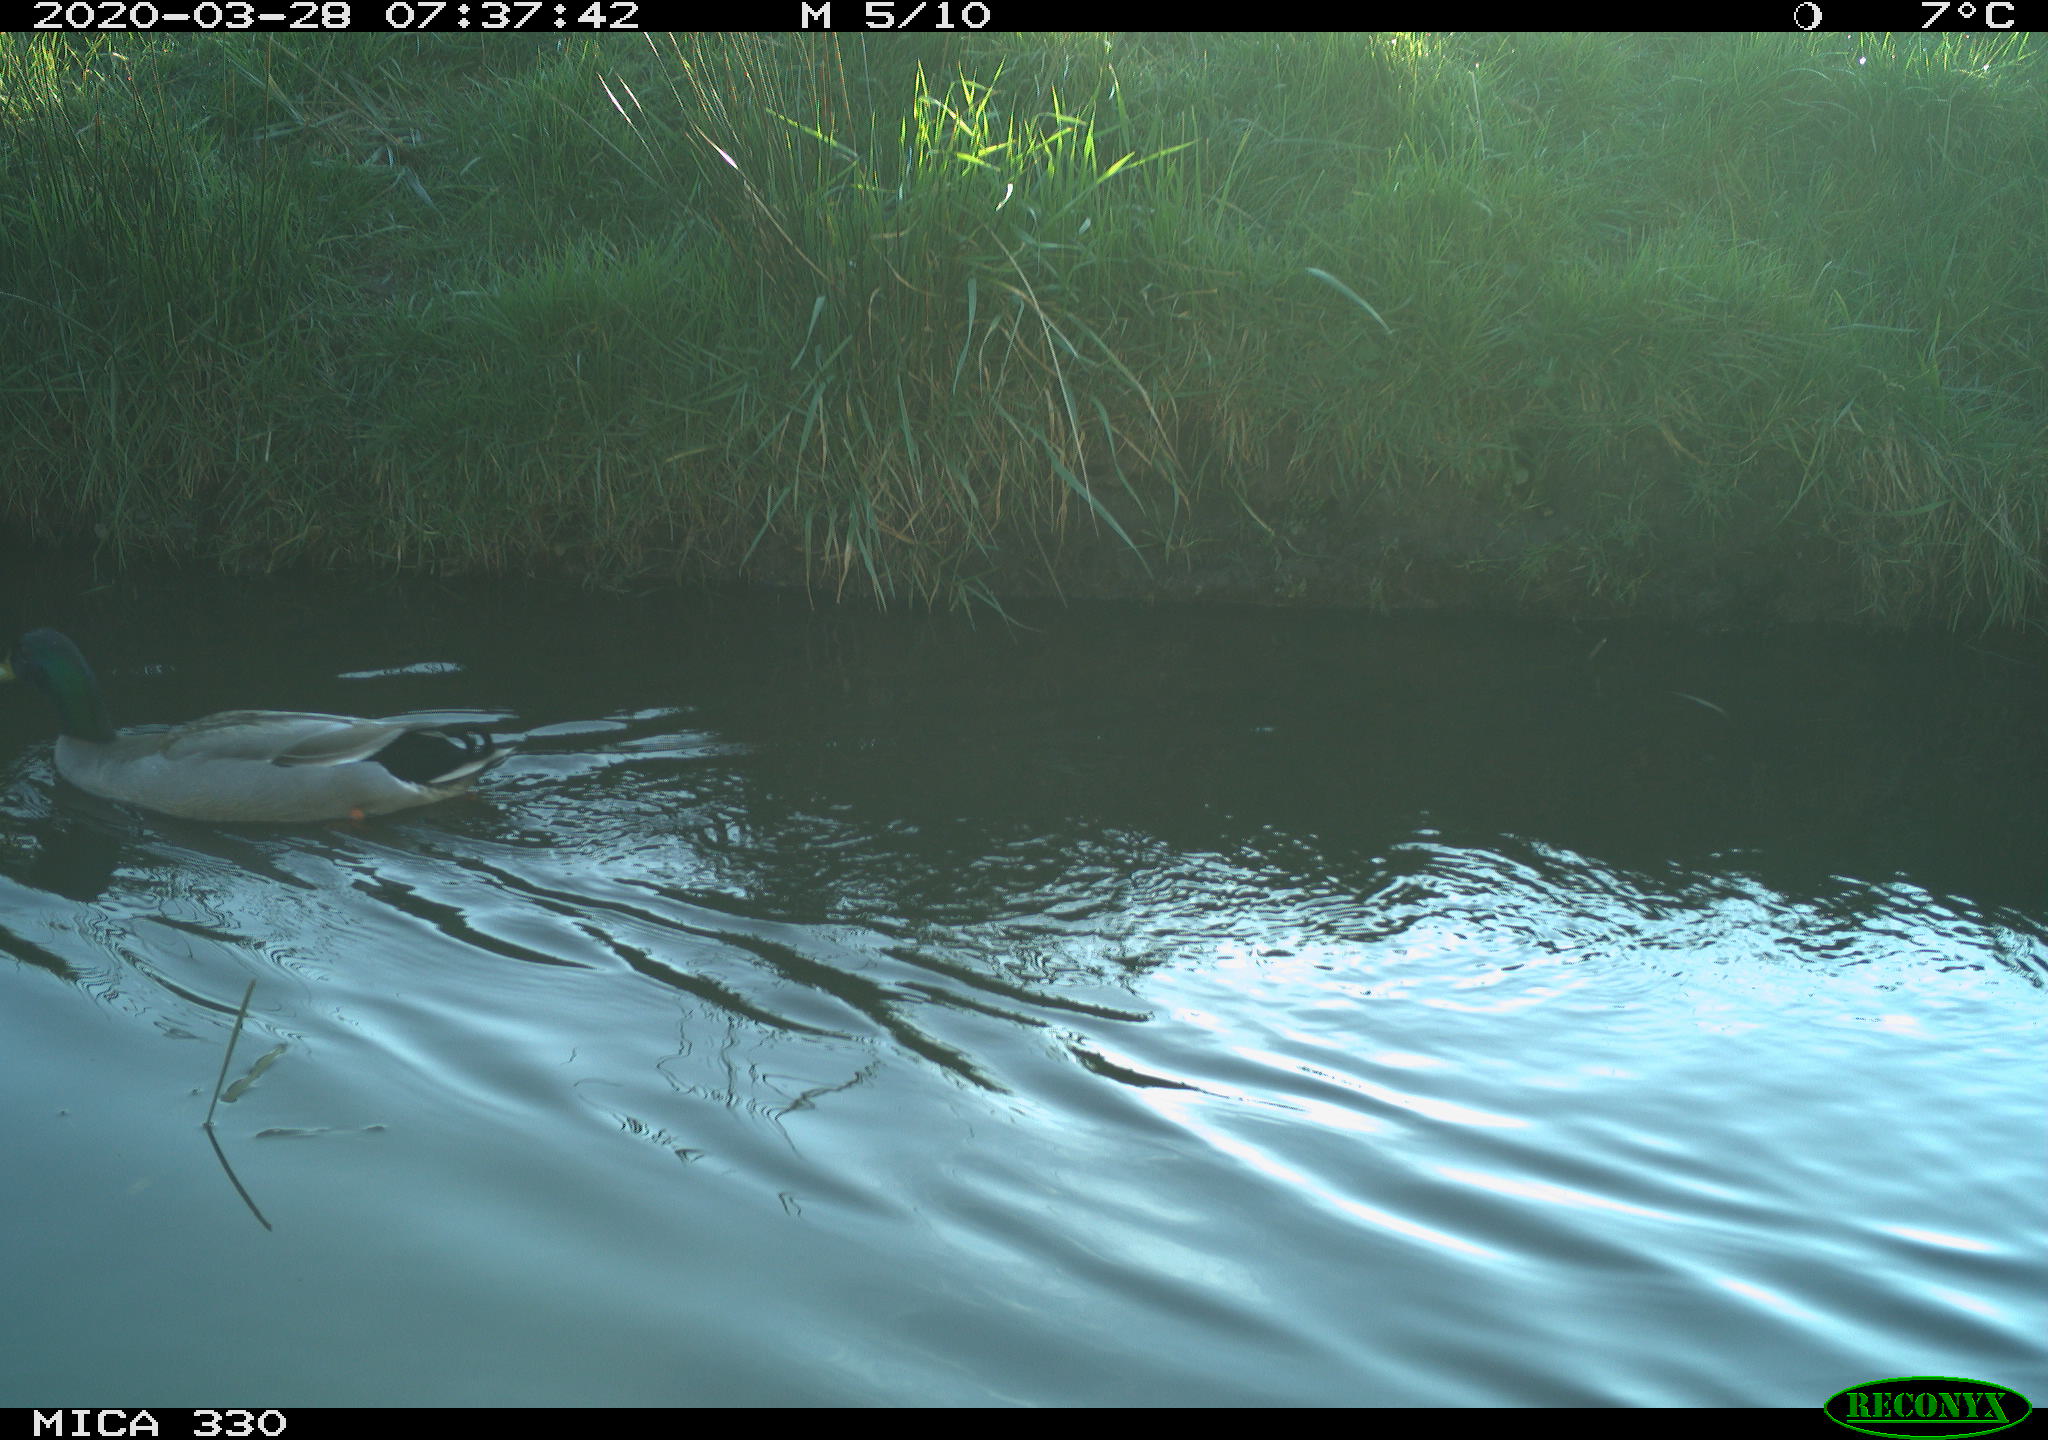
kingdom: Animalia
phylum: Chordata
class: Aves
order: Anseriformes
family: Anatidae
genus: Anas
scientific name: Anas platyrhynchos
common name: Mallard
